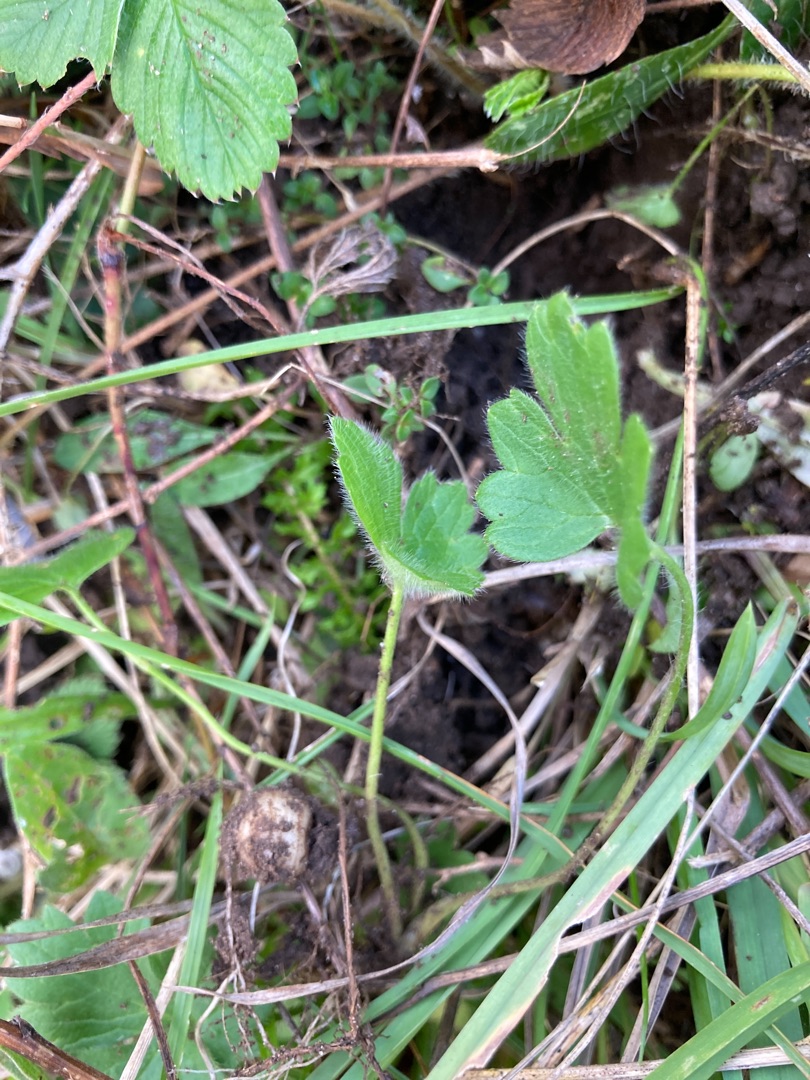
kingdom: Plantae
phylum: Tracheophyta
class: Magnoliopsida
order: Ranunculales
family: Ranunculaceae
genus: Ranunculus
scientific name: Ranunculus bulbosus
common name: Knold-ranunkel
